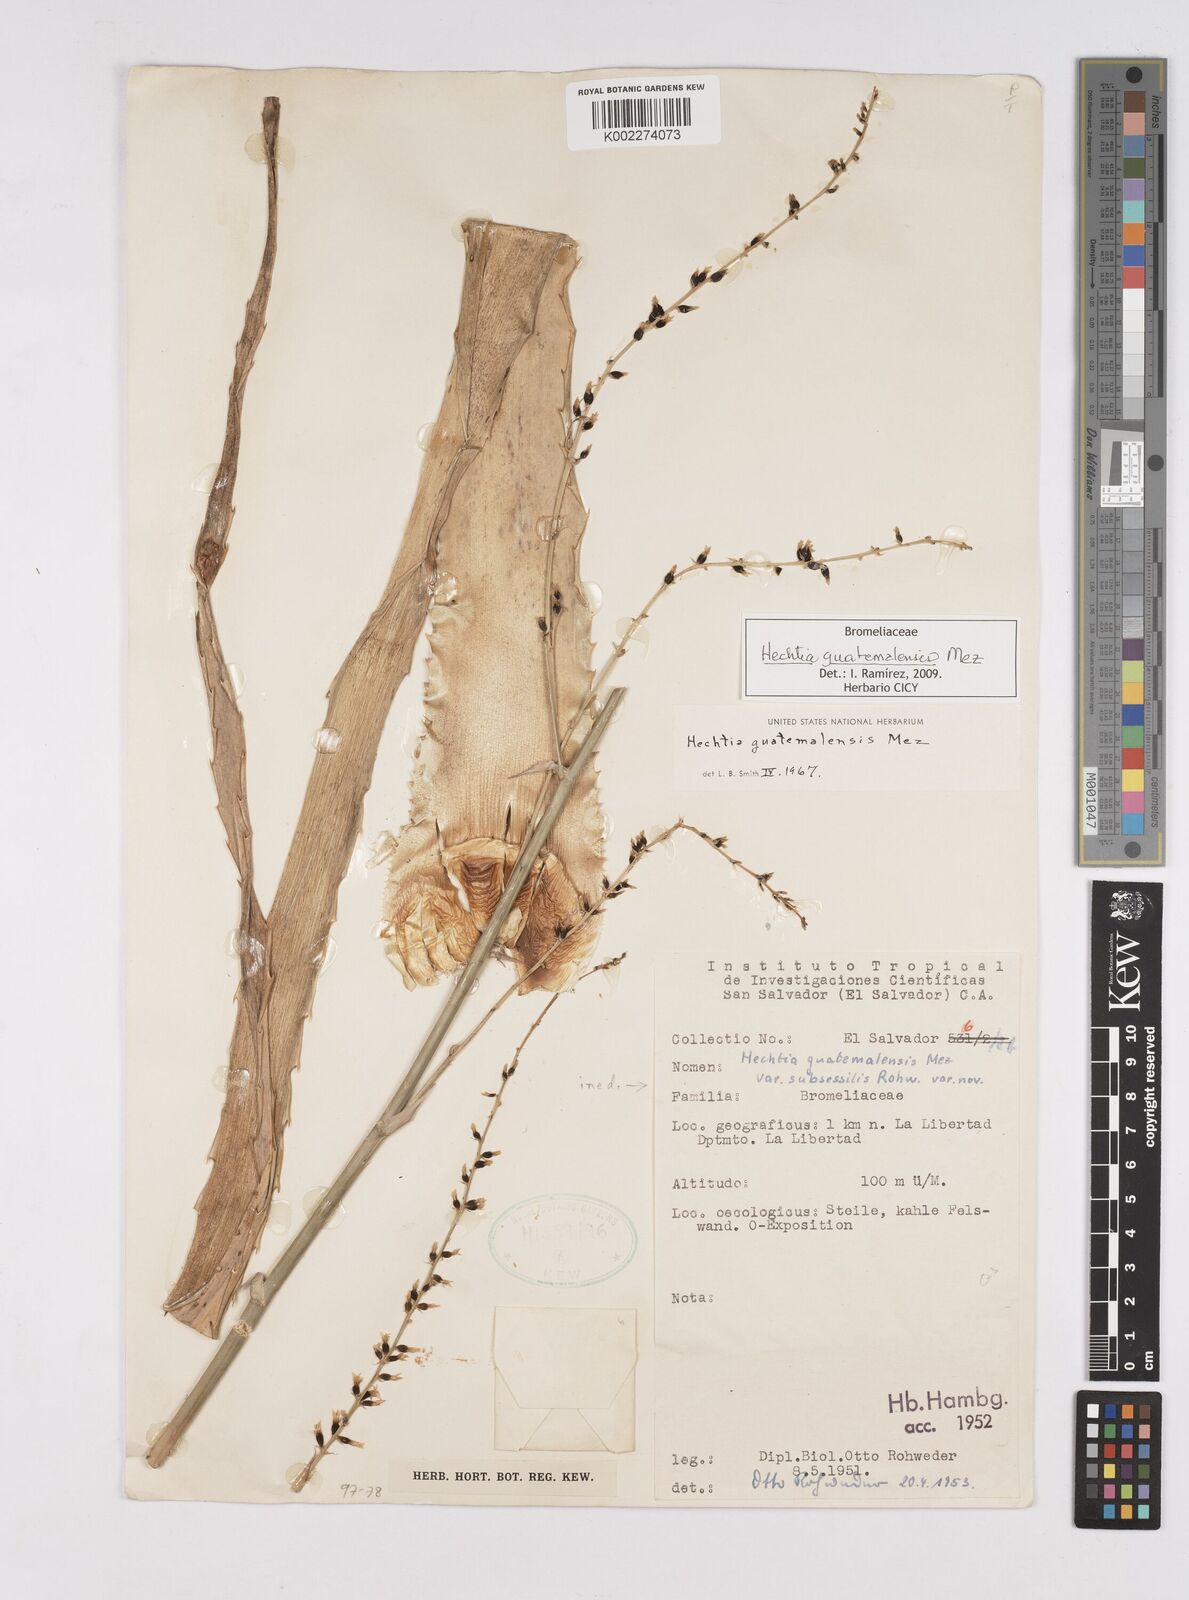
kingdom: Plantae
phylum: Tracheophyta
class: Liliopsida
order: Poales
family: Bromeliaceae
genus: Hechtia
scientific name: Hechtia guatemalensis
